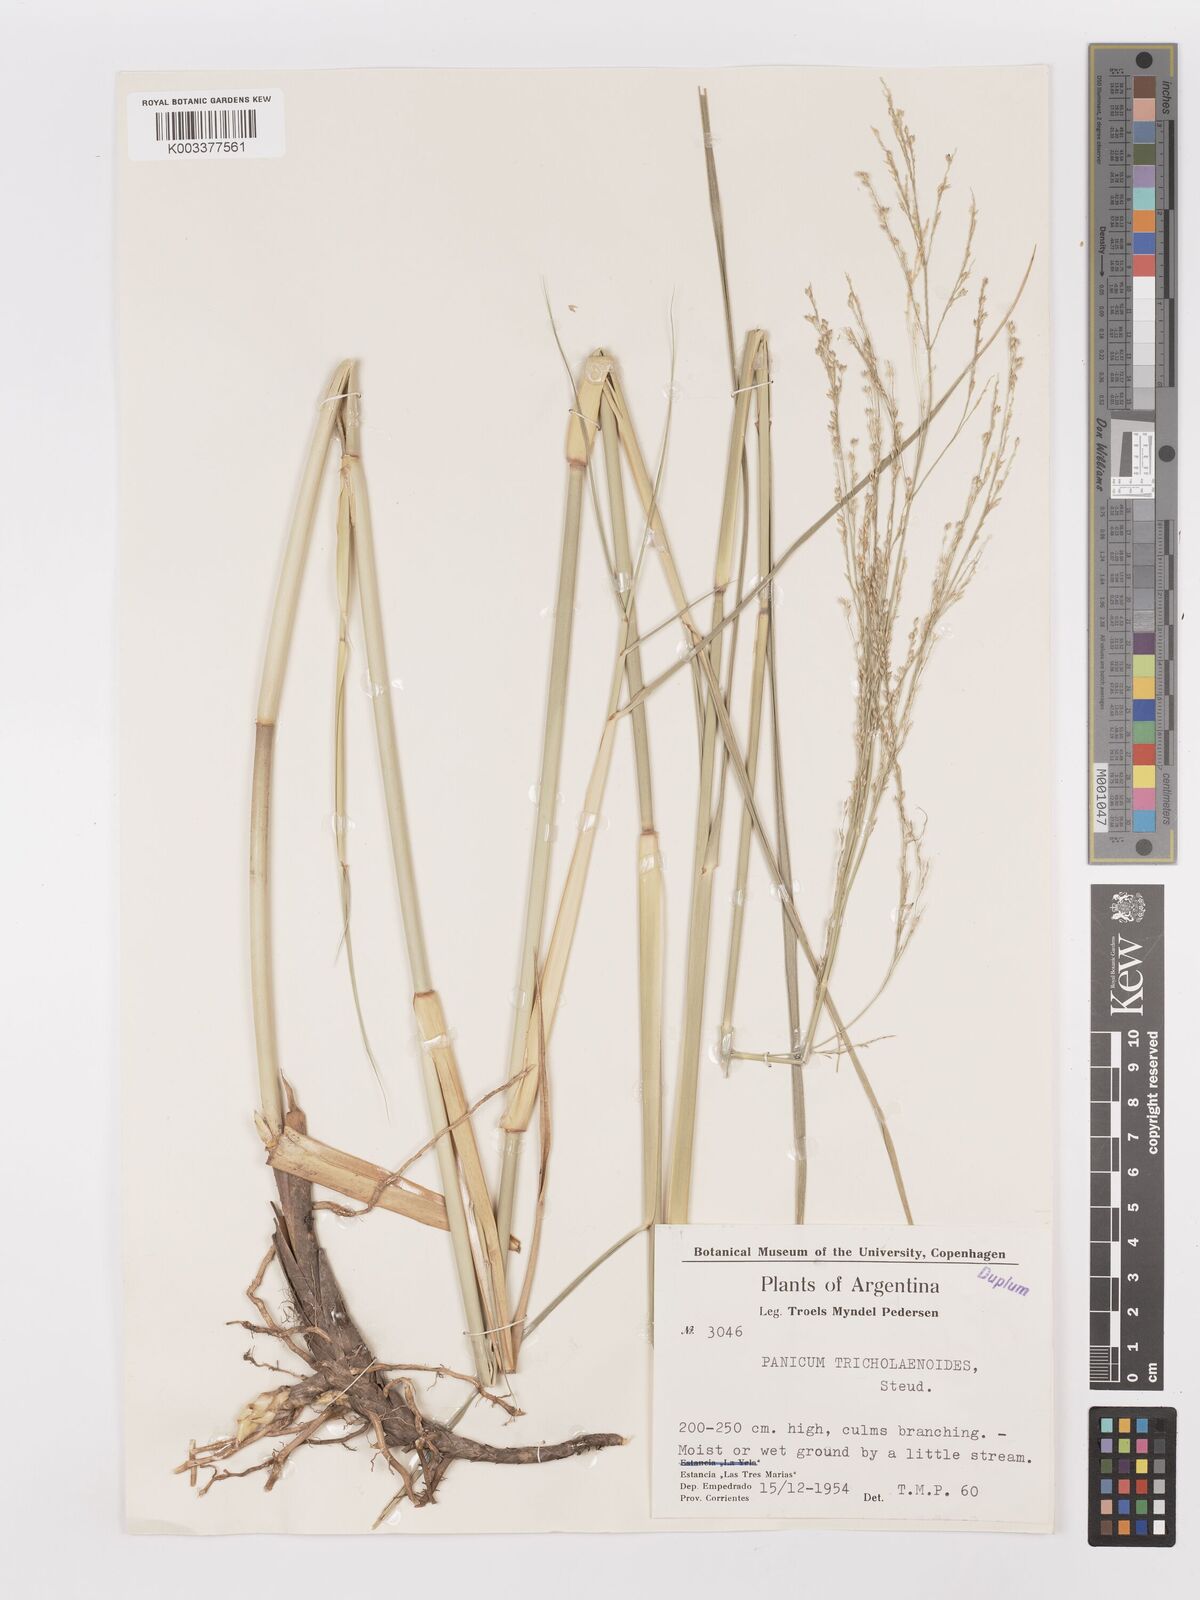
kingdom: Plantae
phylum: Tracheophyta
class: Liliopsida
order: Poales
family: Poaceae
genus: Panicum
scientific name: Panicum tricholaenoides
